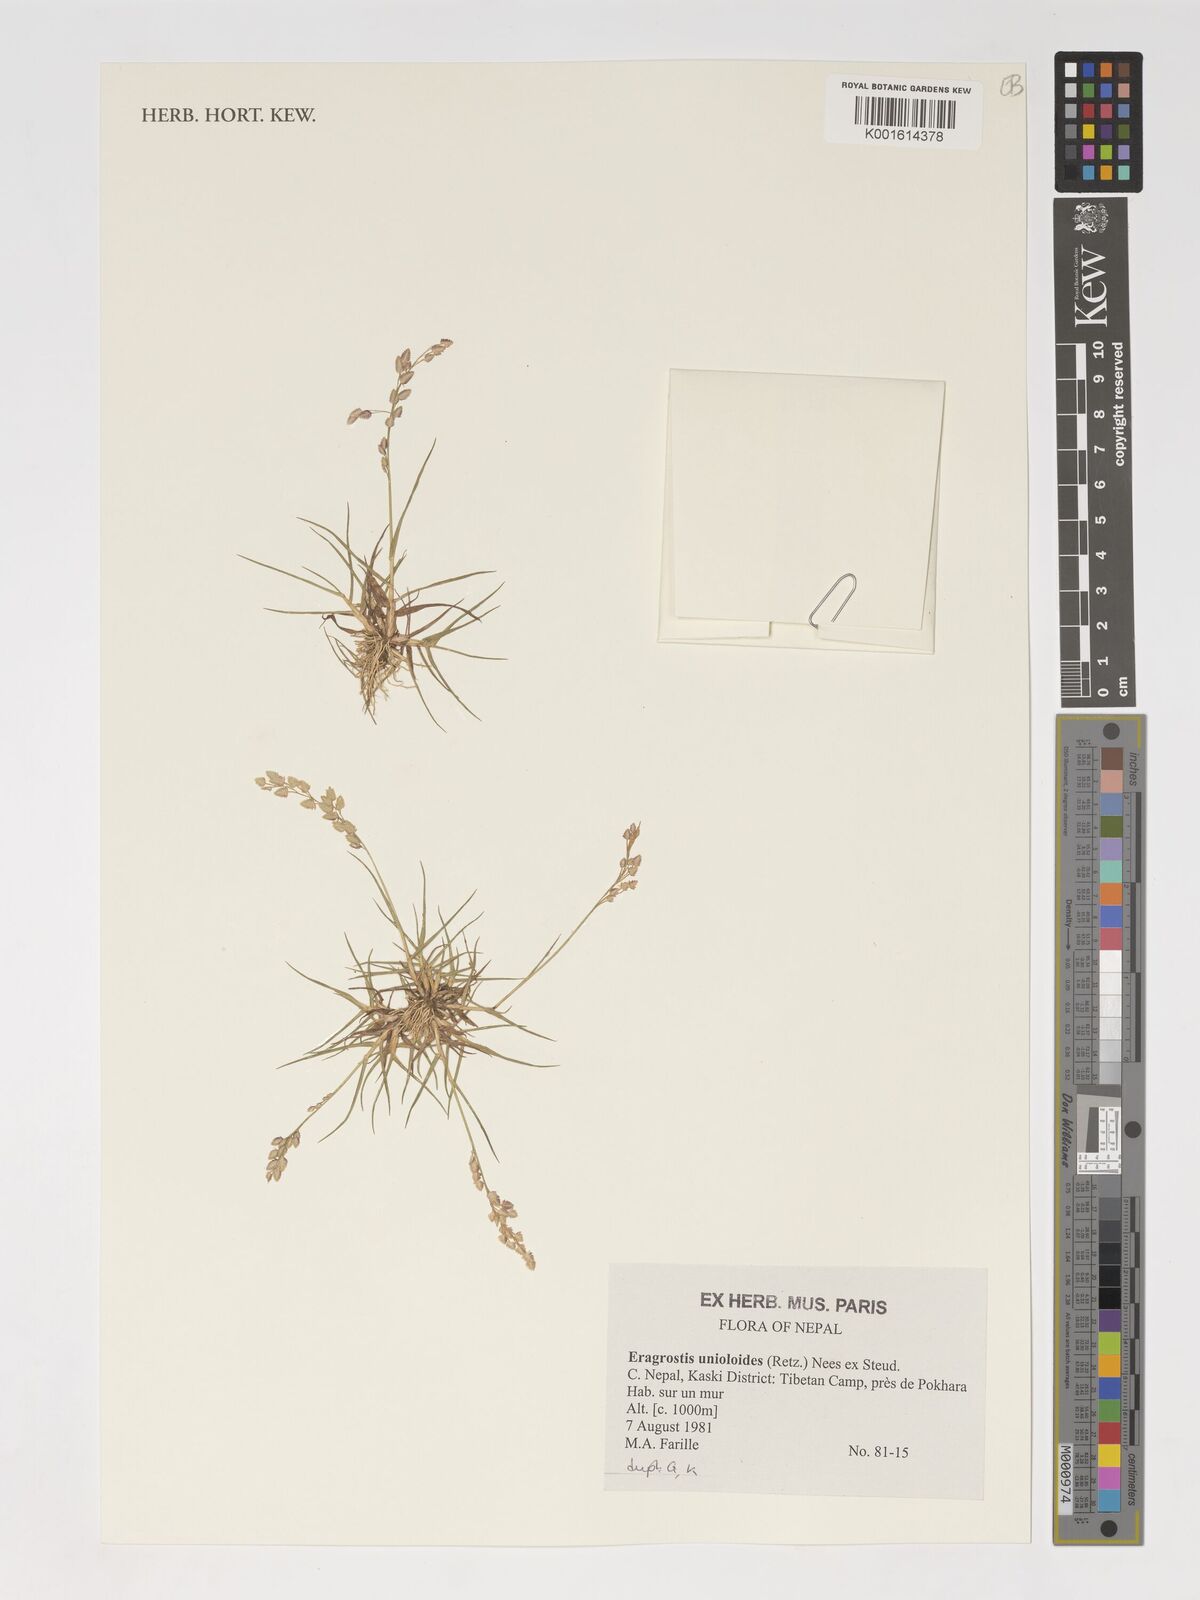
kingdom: Plantae
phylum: Tracheophyta
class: Liliopsida
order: Poales
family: Poaceae
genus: Eragrostis
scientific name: Eragrostis unioloides
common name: Chinese lovegrass
